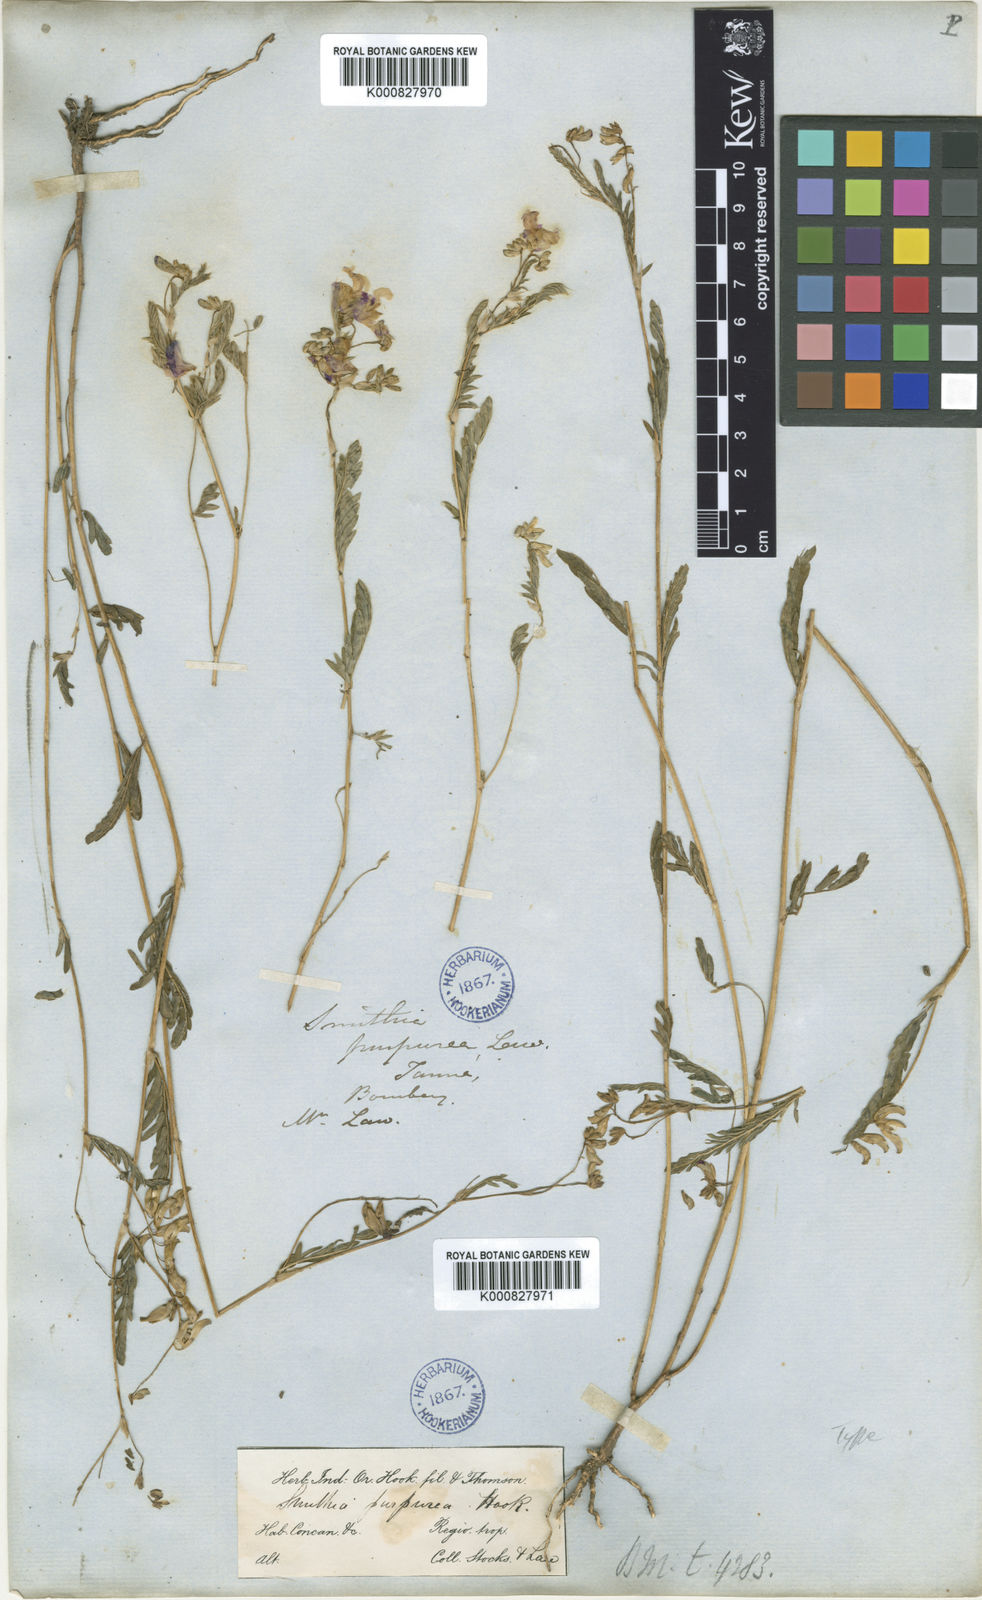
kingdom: Plantae
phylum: Tracheophyta
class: Magnoliopsida
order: Fabales
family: Fabaceae
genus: Smithia
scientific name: Smithia purpurea
